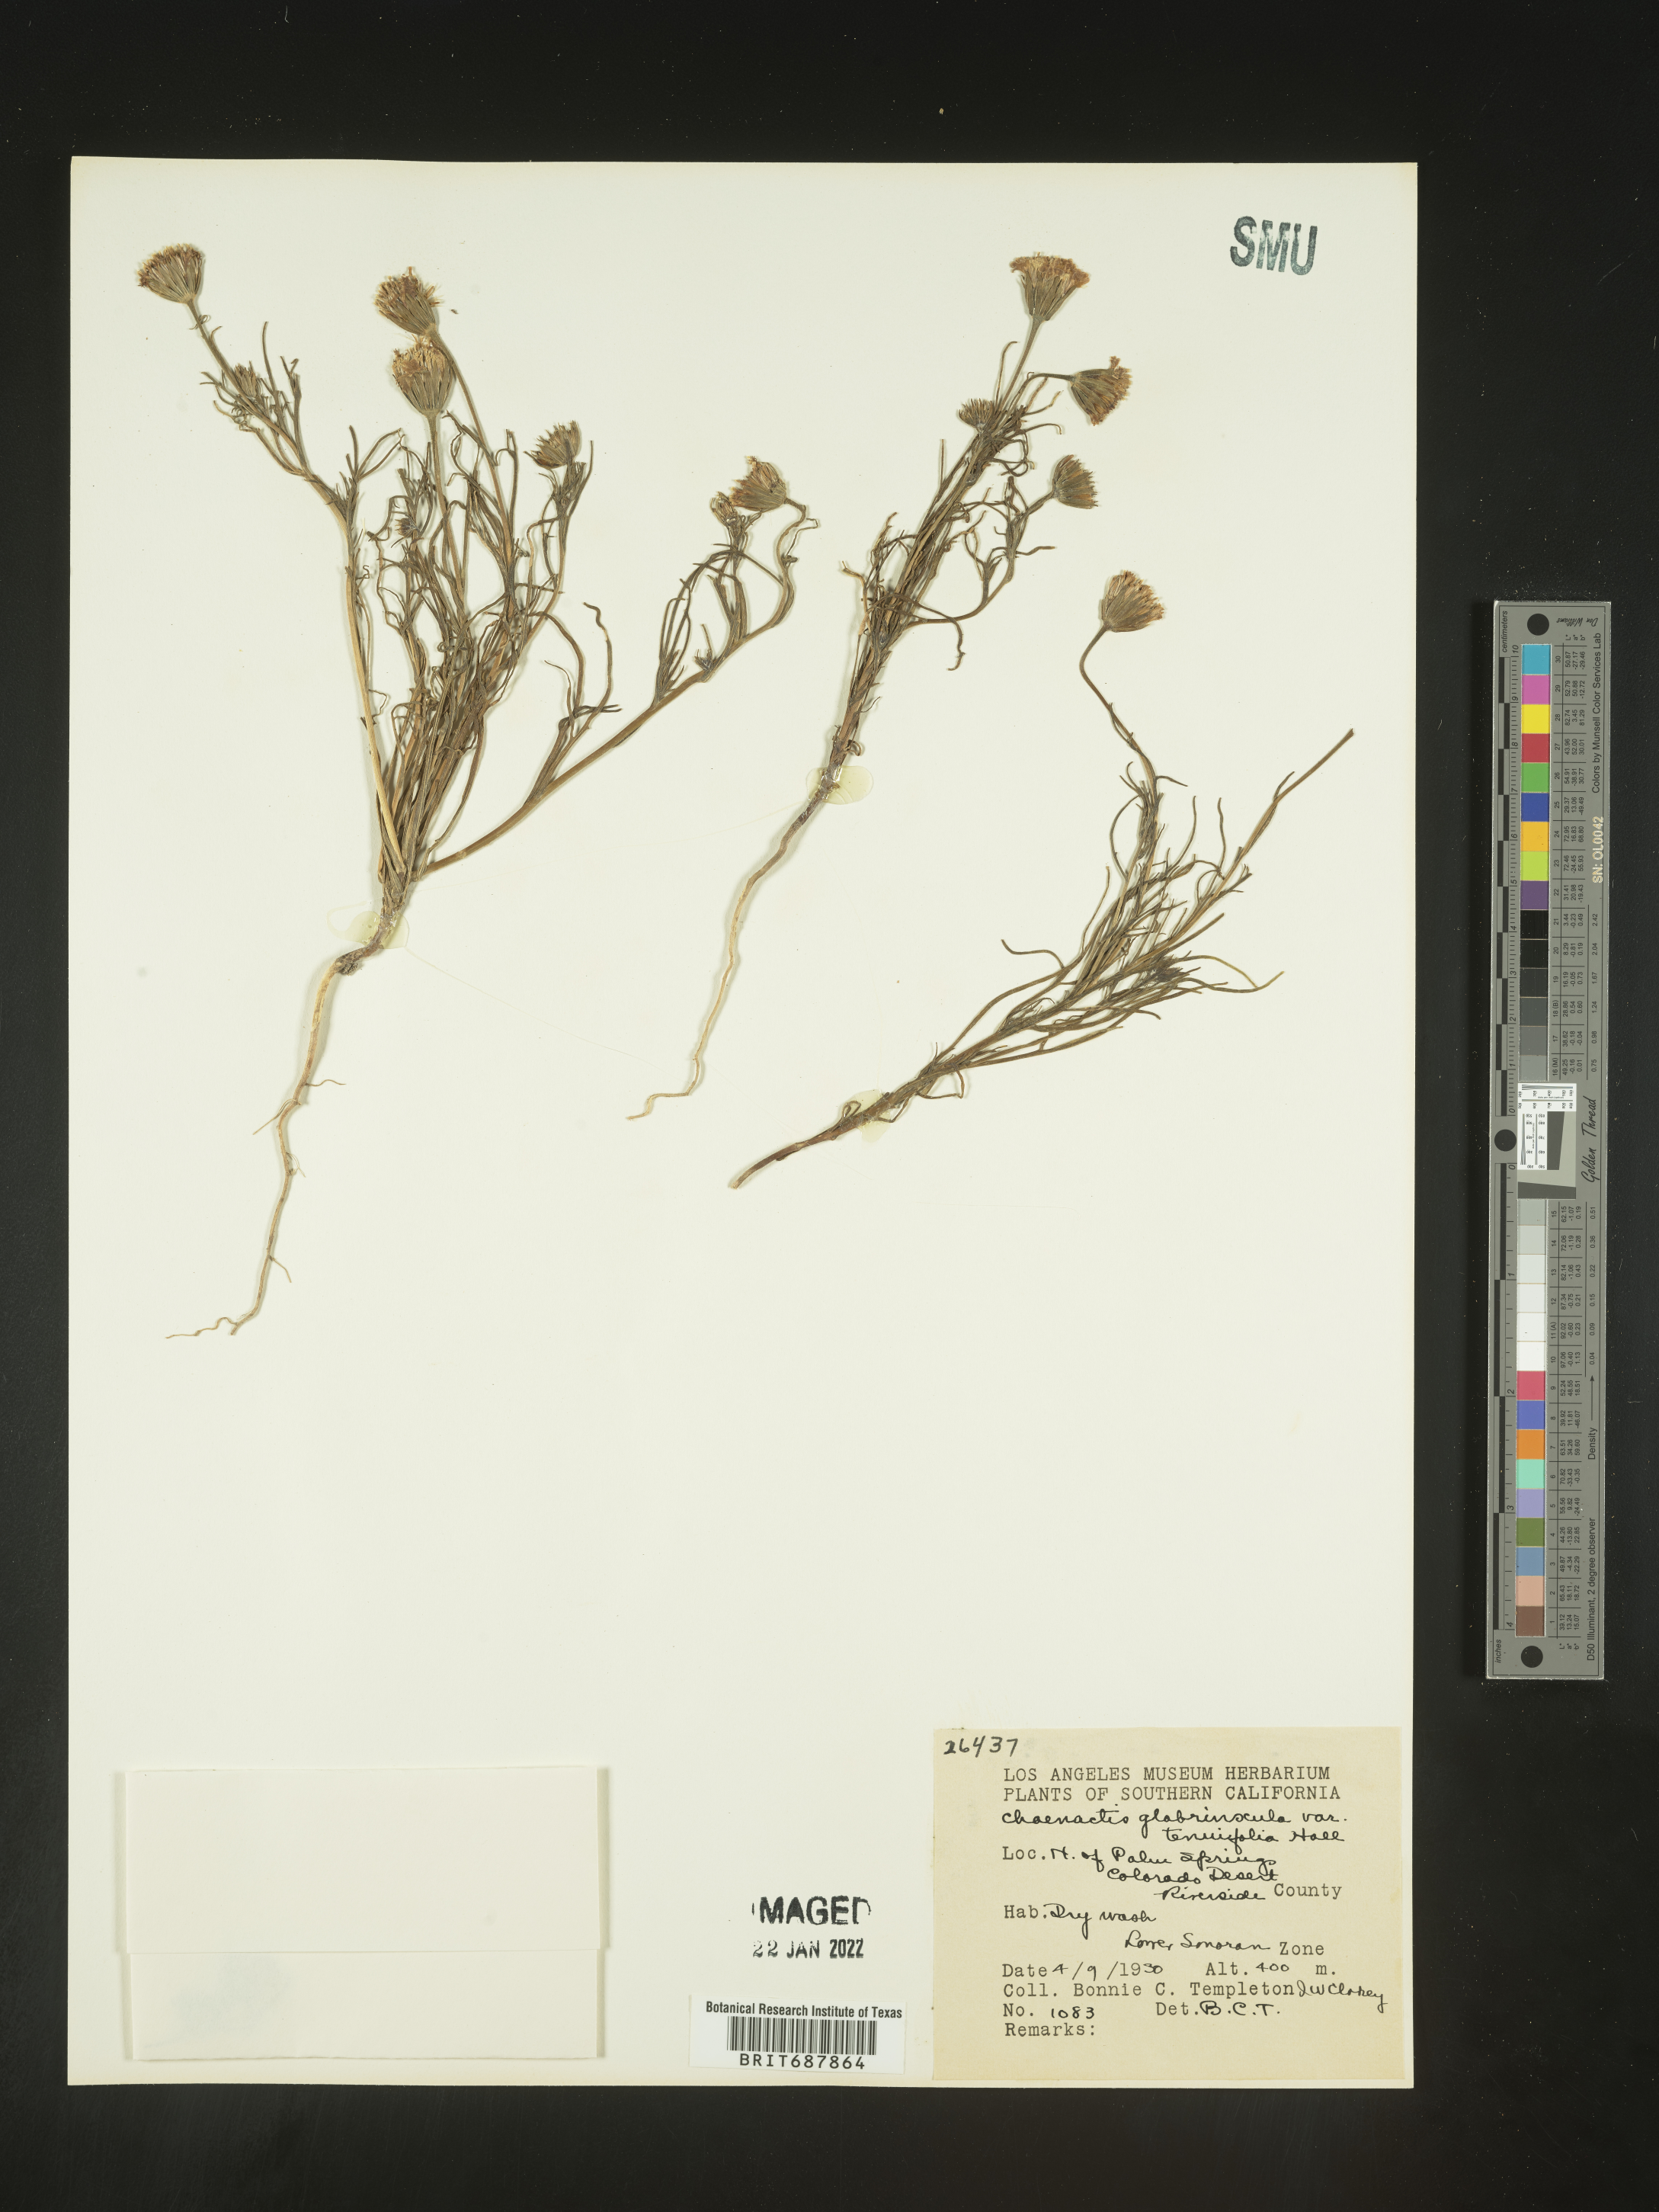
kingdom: Plantae
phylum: Tracheophyta
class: Magnoliopsida
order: Asterales
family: Asteraceae
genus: Chaenactis
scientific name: Chaenactis glabriuscula
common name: Yellow pincushion
